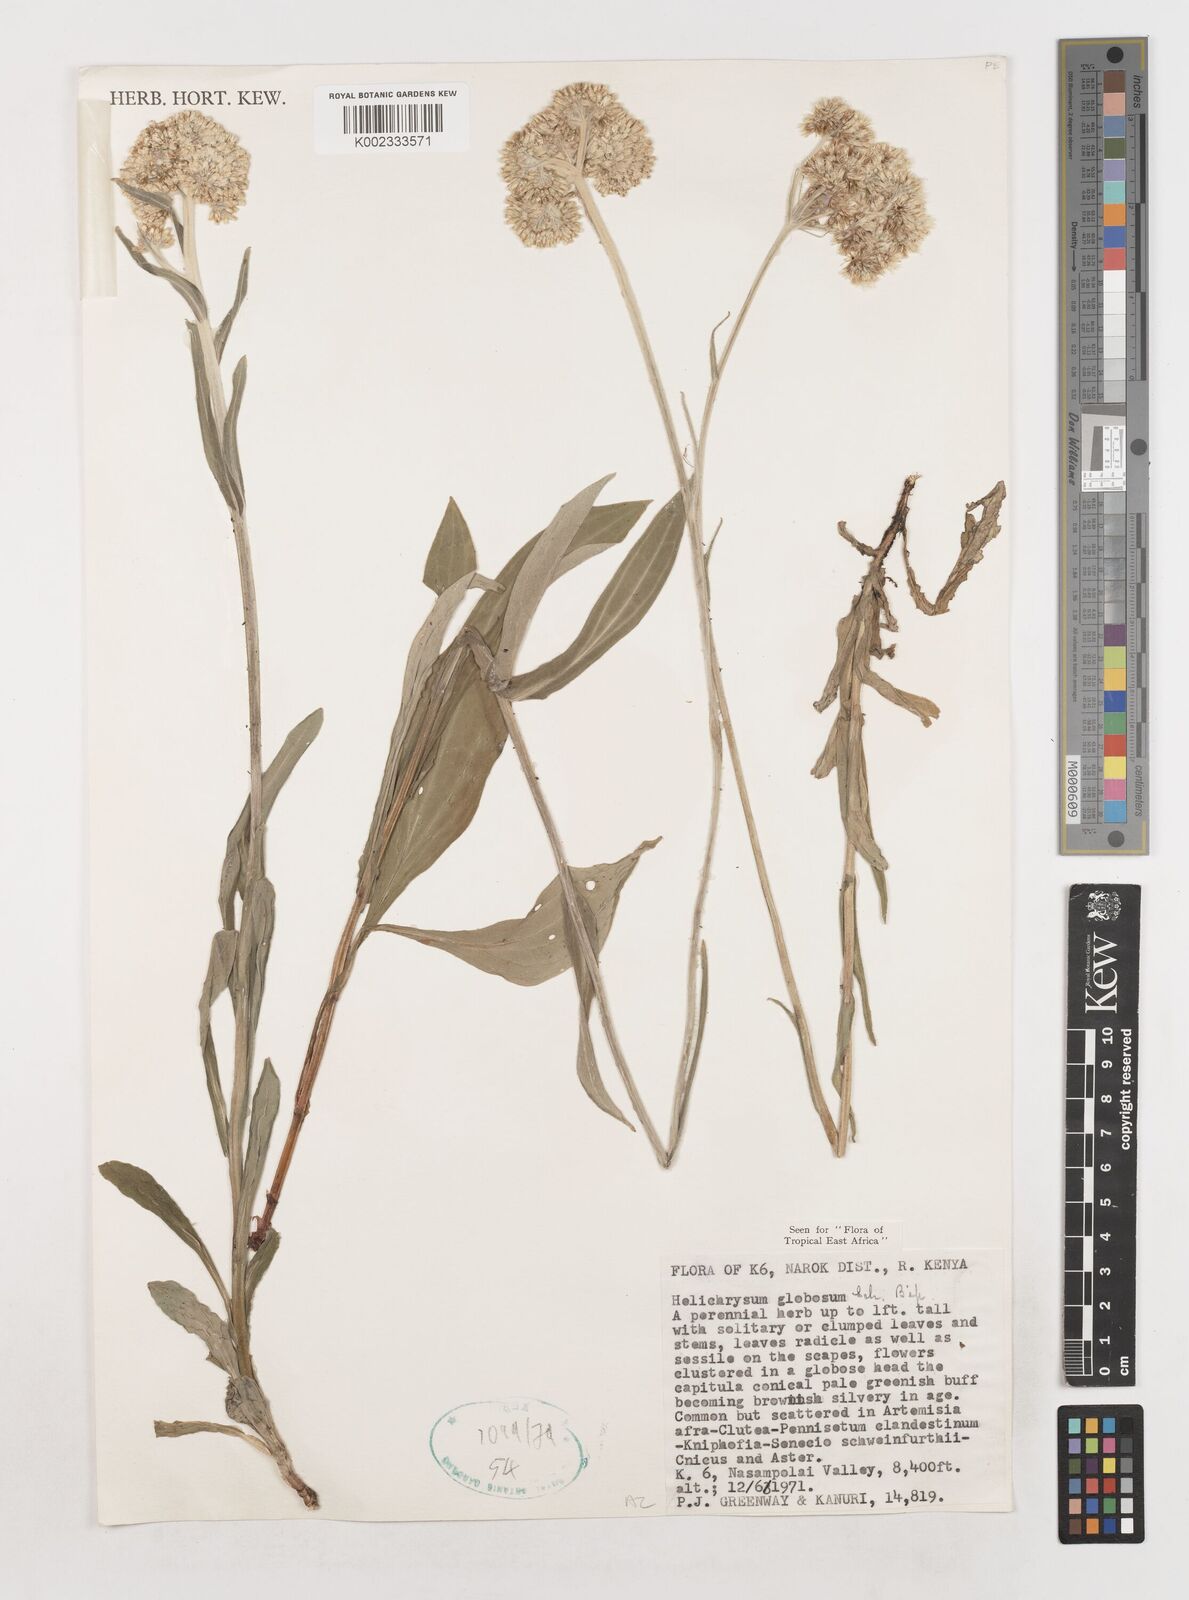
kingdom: Plantae
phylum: Tracheophyta
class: Magnoliopsida
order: Asterales
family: Asteraceae
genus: Helichrysum
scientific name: Helichrysum globosum
